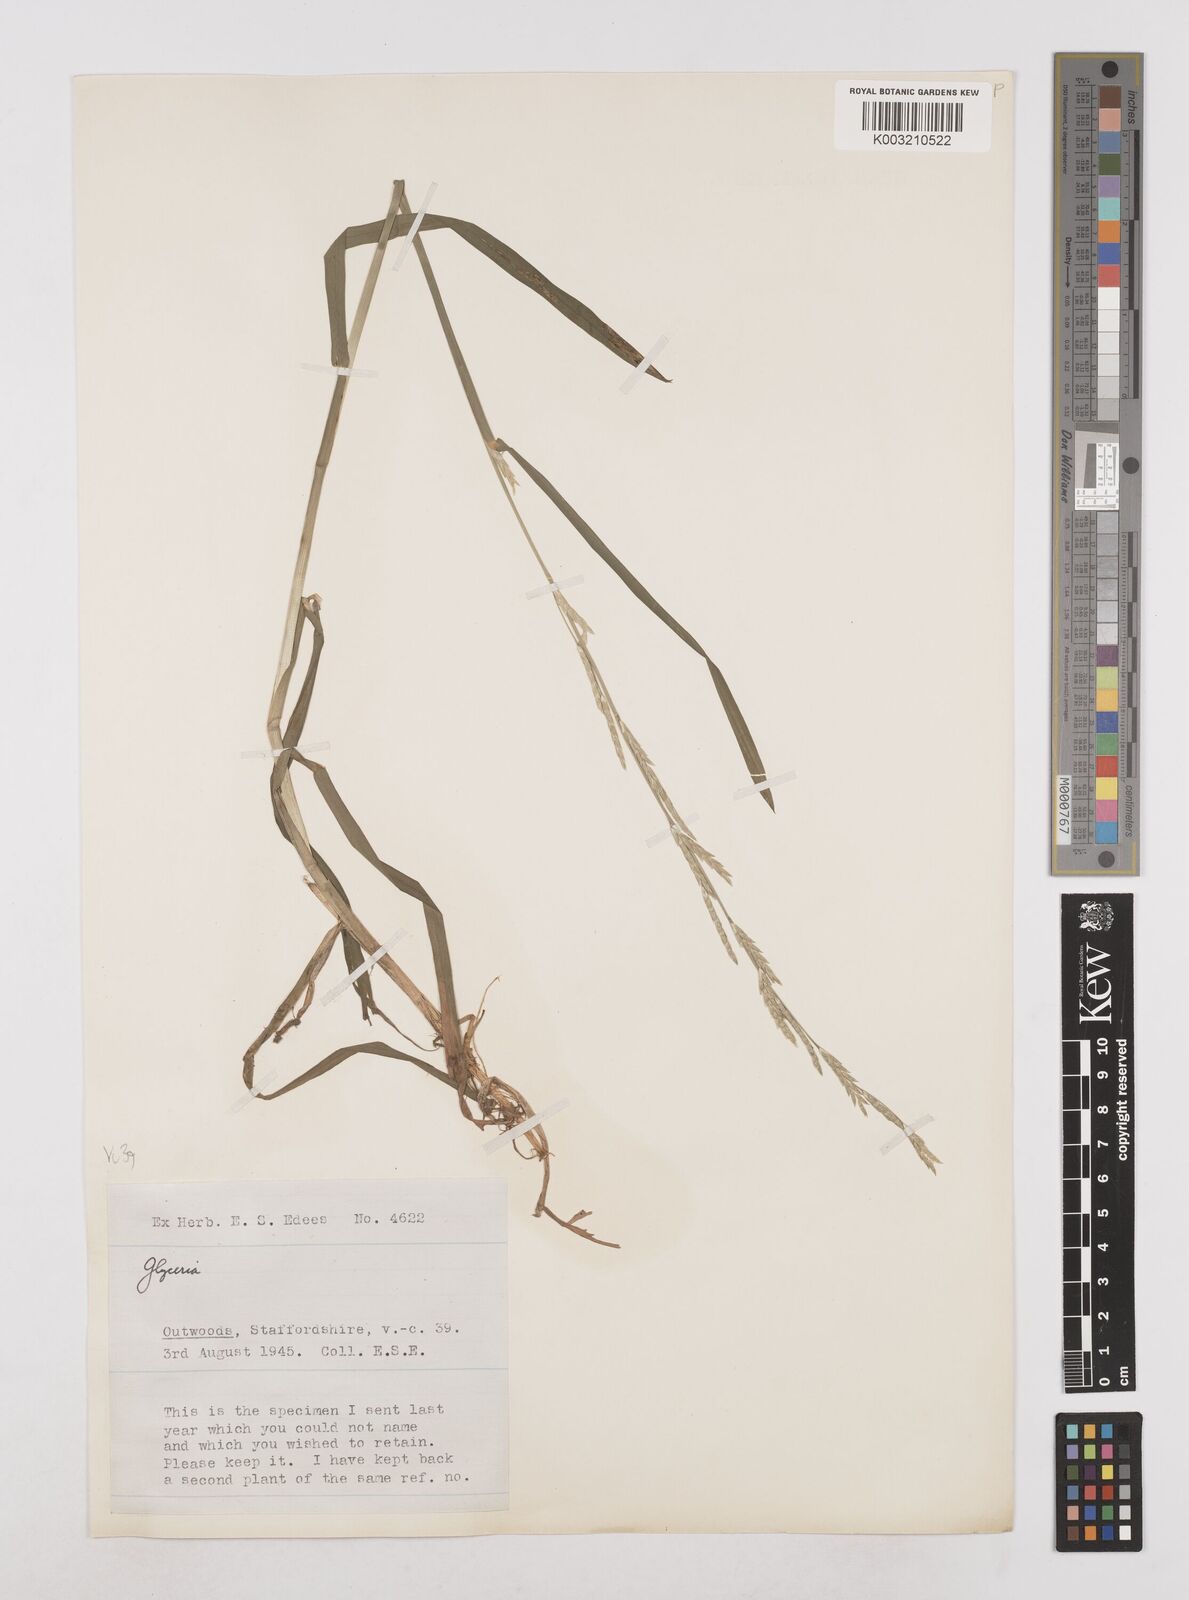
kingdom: Plantae
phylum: Tracheophyta
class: Liliopsida
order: Poales
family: Poaceae
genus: Glyceria
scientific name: Glyceria declinata
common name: Small sweet-grass
